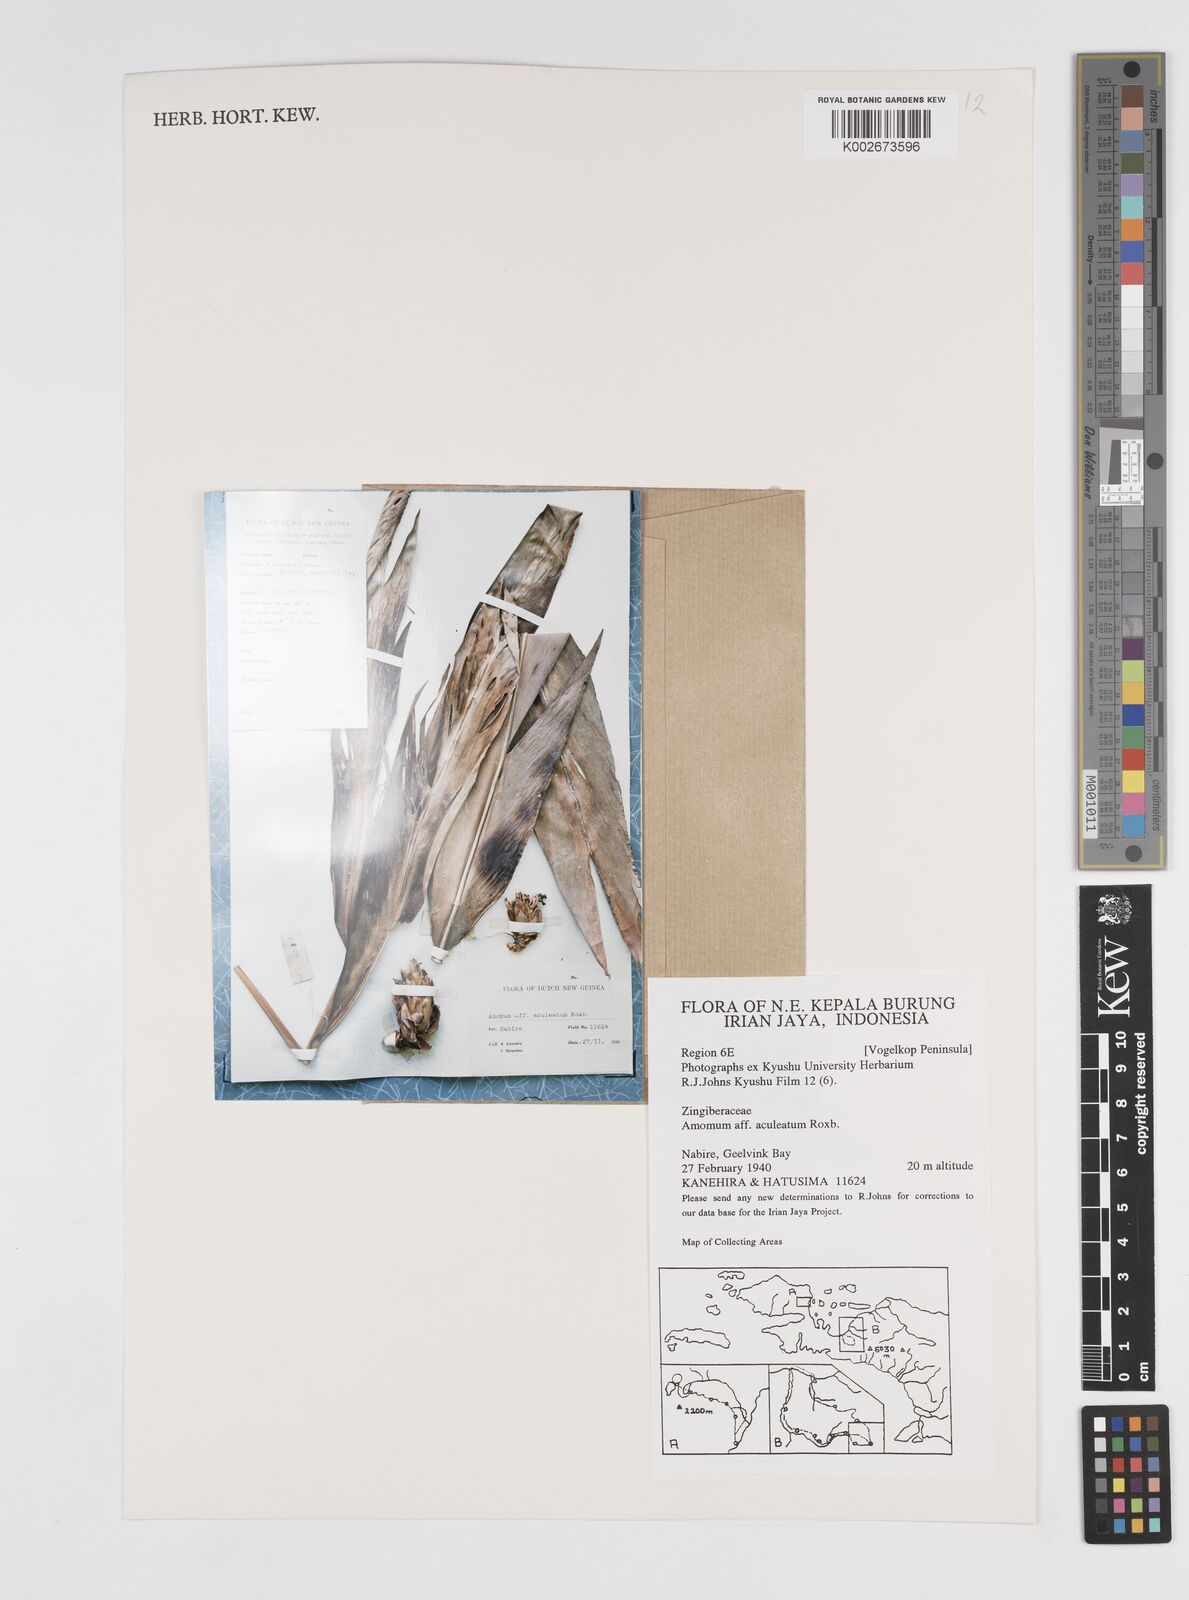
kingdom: Plantae
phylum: Tracheophyta
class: Liliopsida
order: Zingiberales
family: Zingiberaceae
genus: Meistera
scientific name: Meistera aculeata
